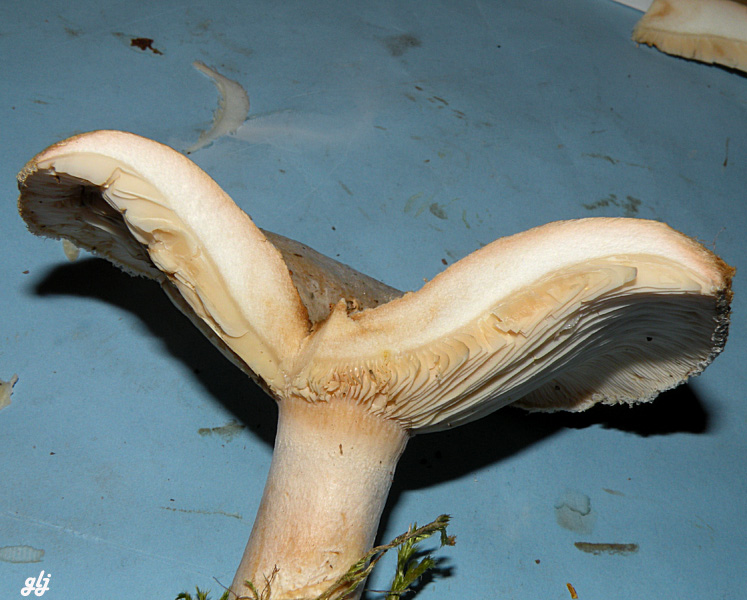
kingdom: Fungi
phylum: Basidiomycota
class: Agaricomycetes
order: Russulales
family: Russulaceae
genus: Lactarius
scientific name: Lactarius pubescens
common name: dunet mælkehat
